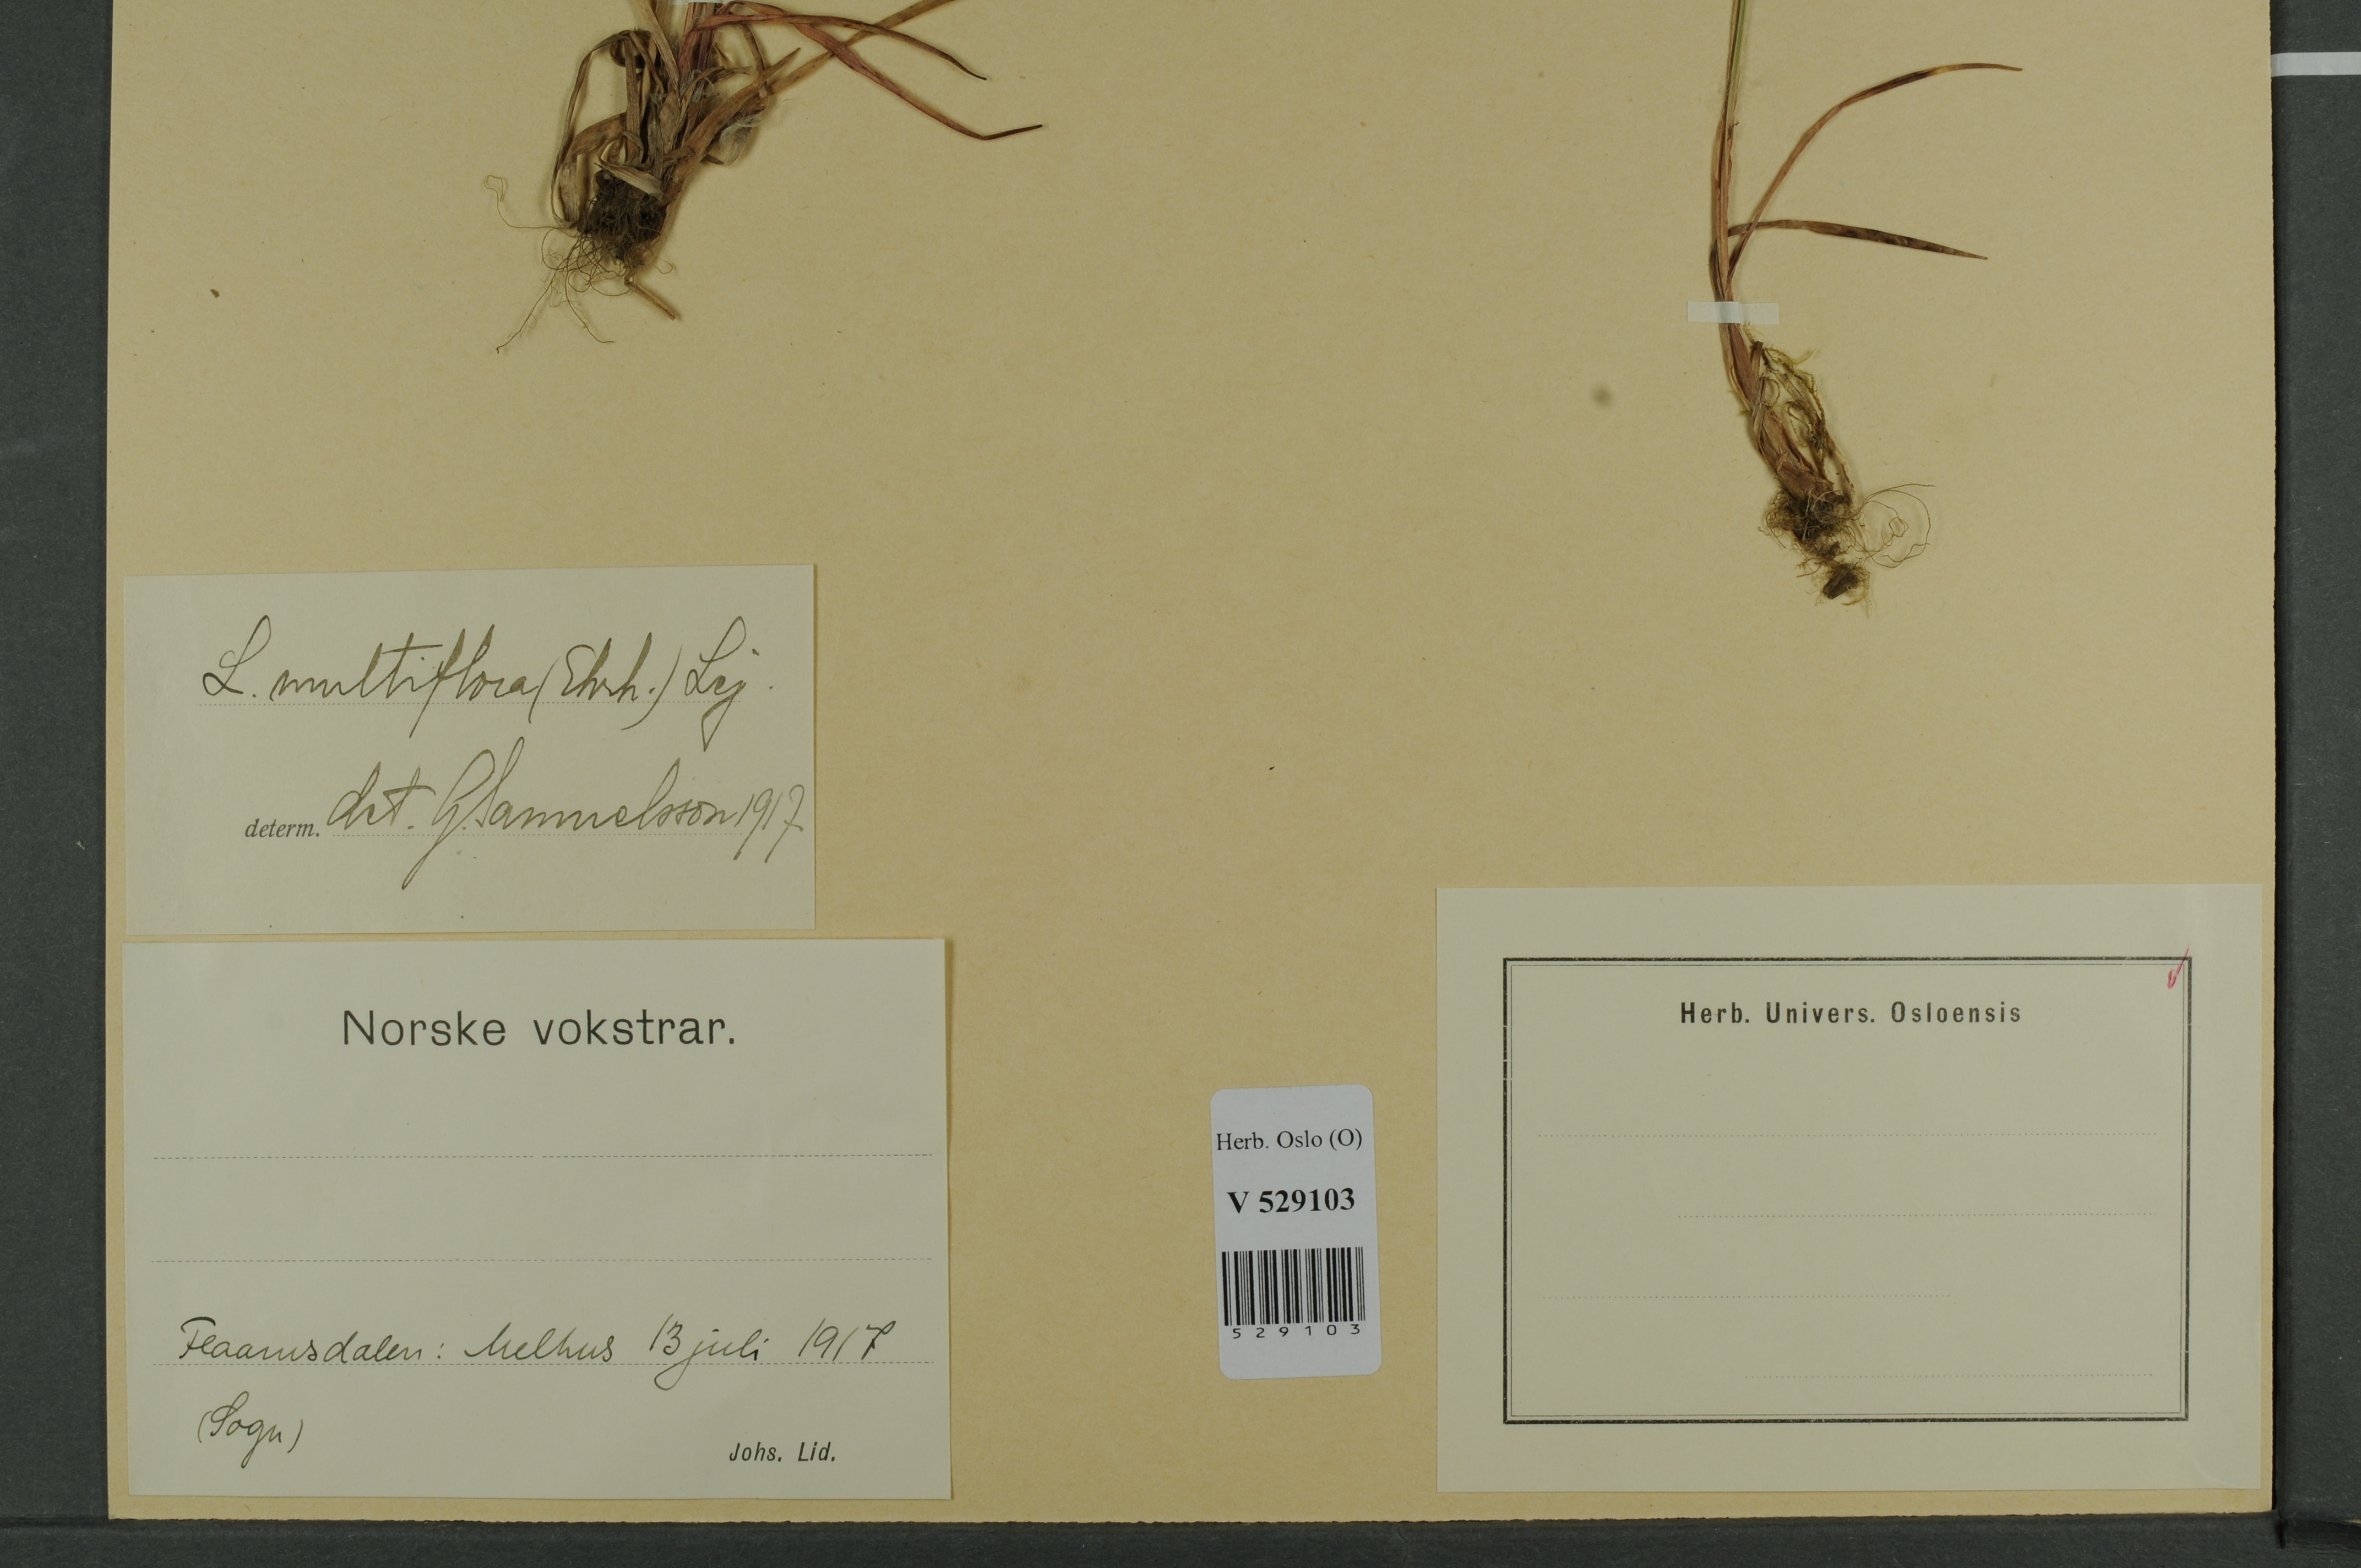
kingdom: Plantae
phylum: Tracheophyta
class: Liliopsida
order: Poales
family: Juncaceae
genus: Luzula
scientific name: Luzula multiflora
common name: Heath wood-rush
